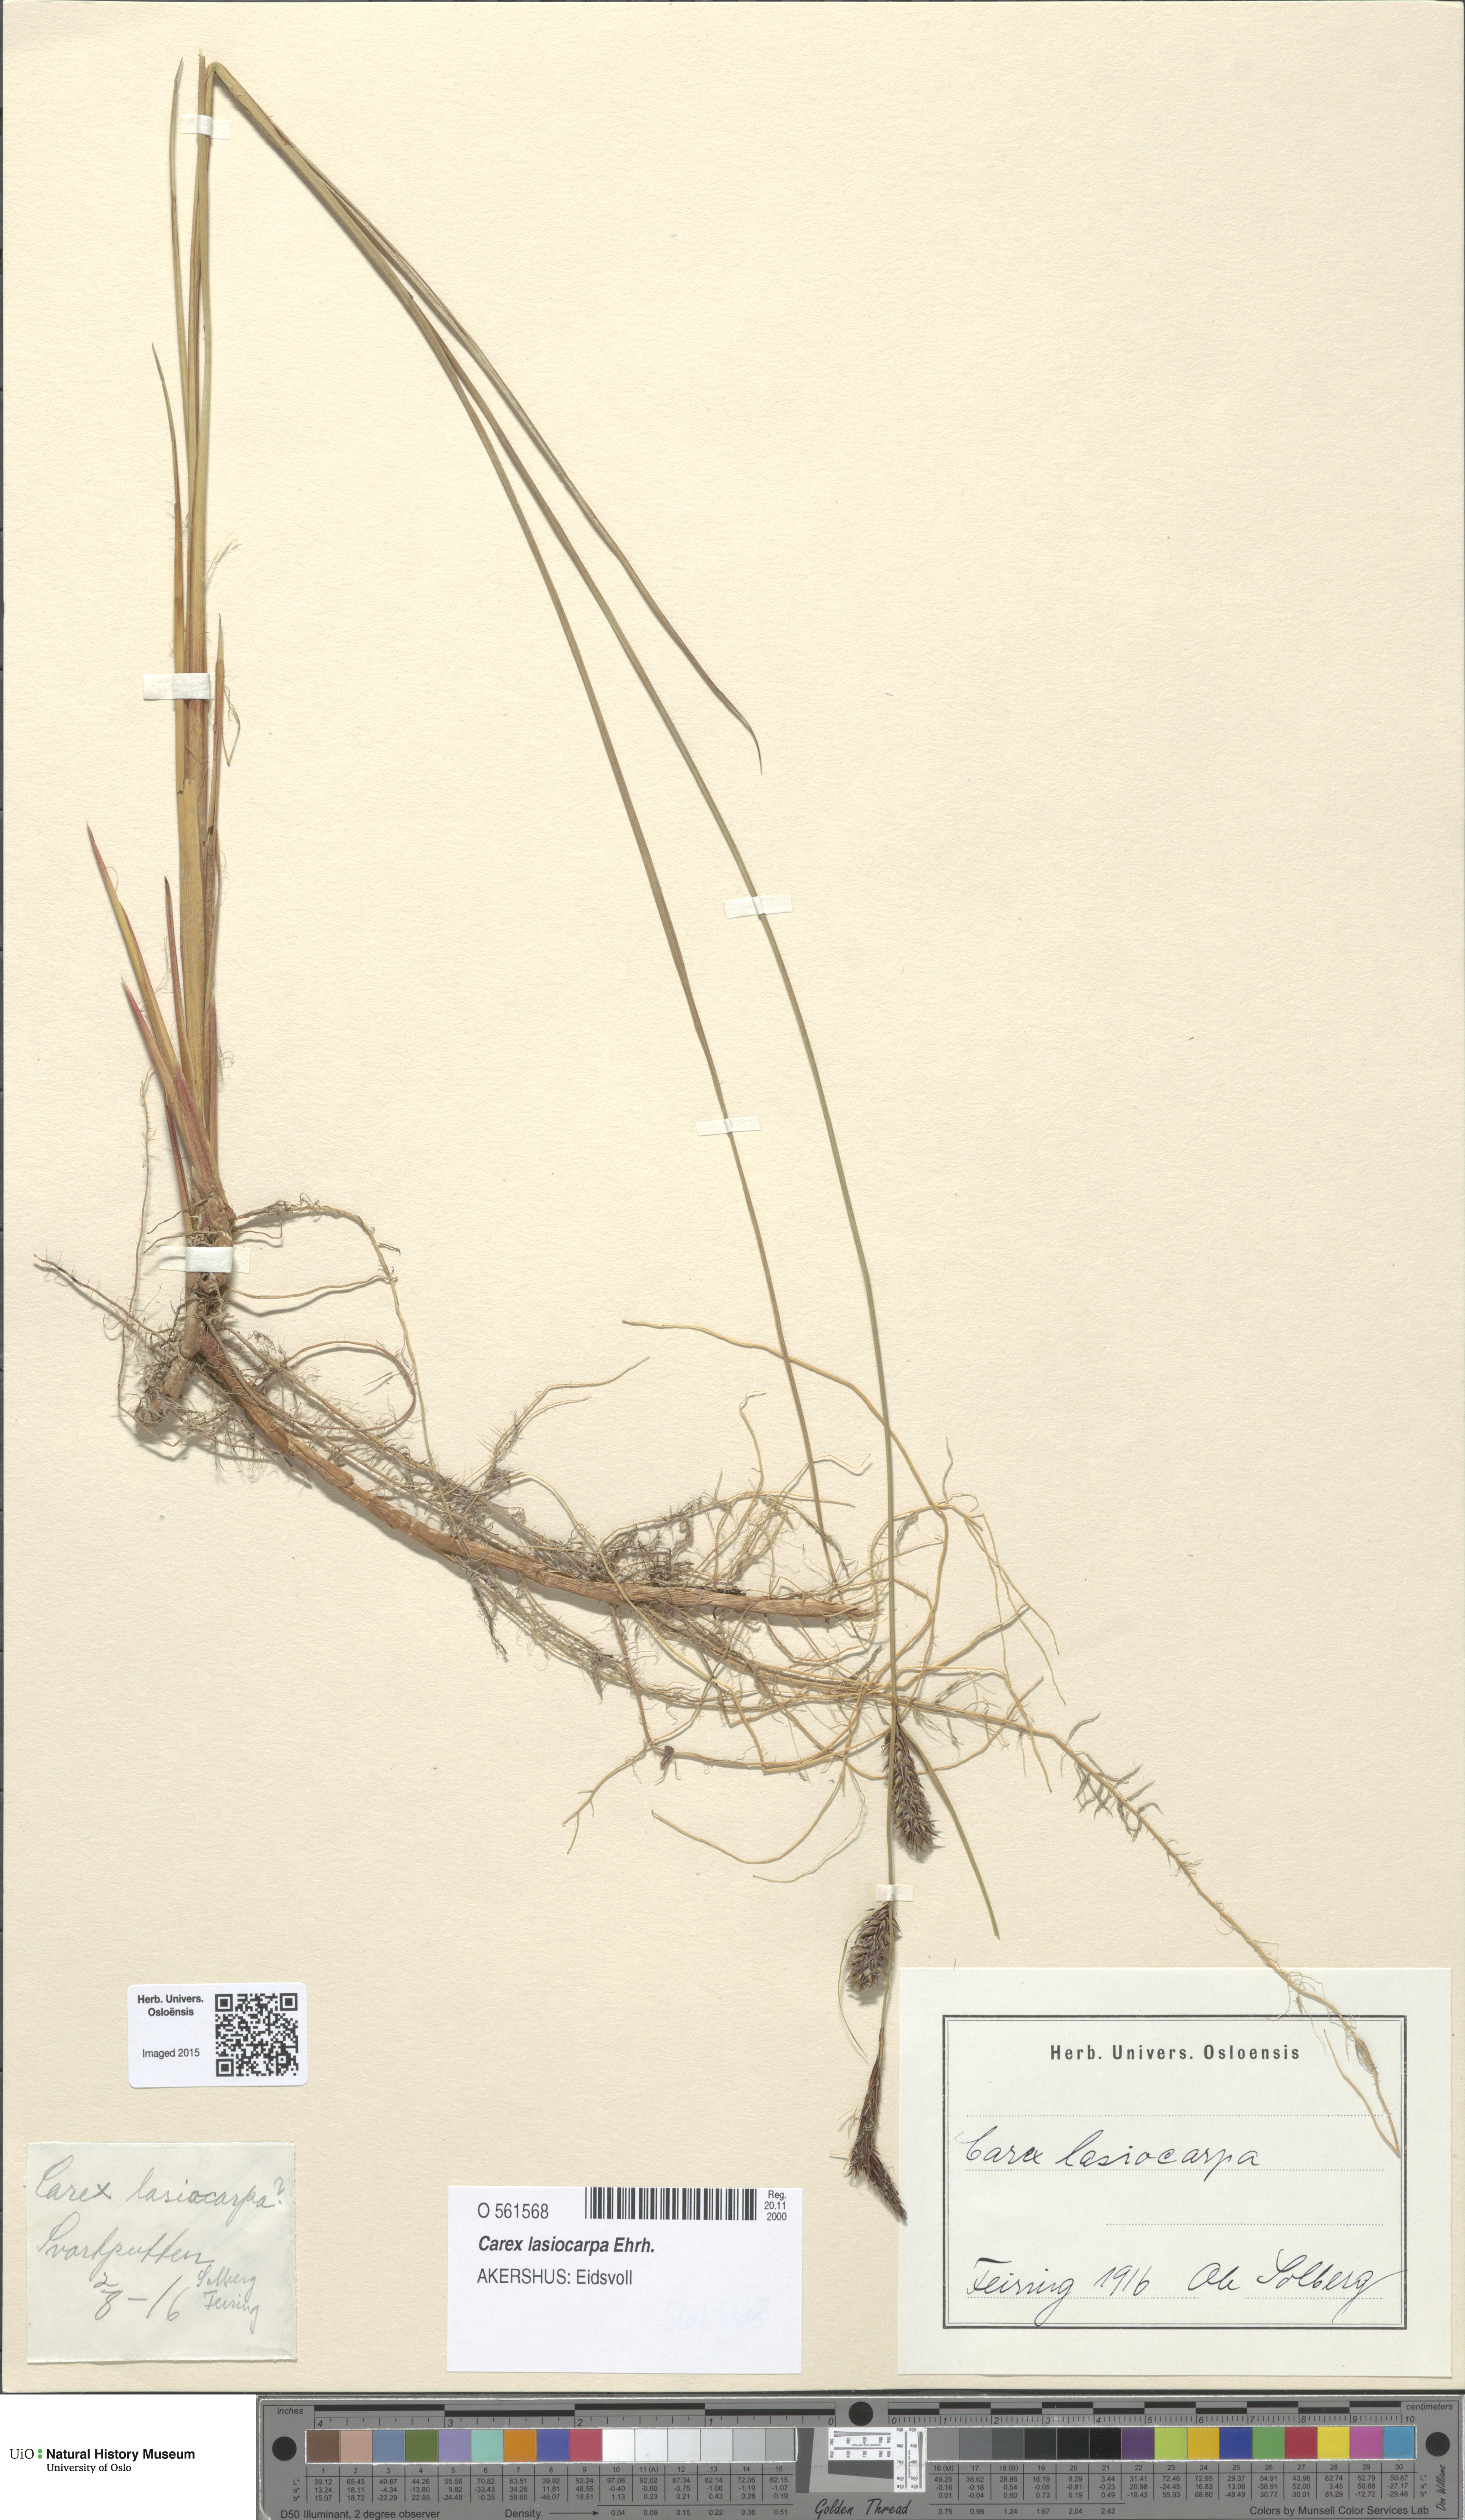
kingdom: Plantae
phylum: Tracheophyta
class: Liliopsida
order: Poales
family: Cyperaceae
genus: Carex
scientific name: Carex lasiocarpa
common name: Slender sedge
